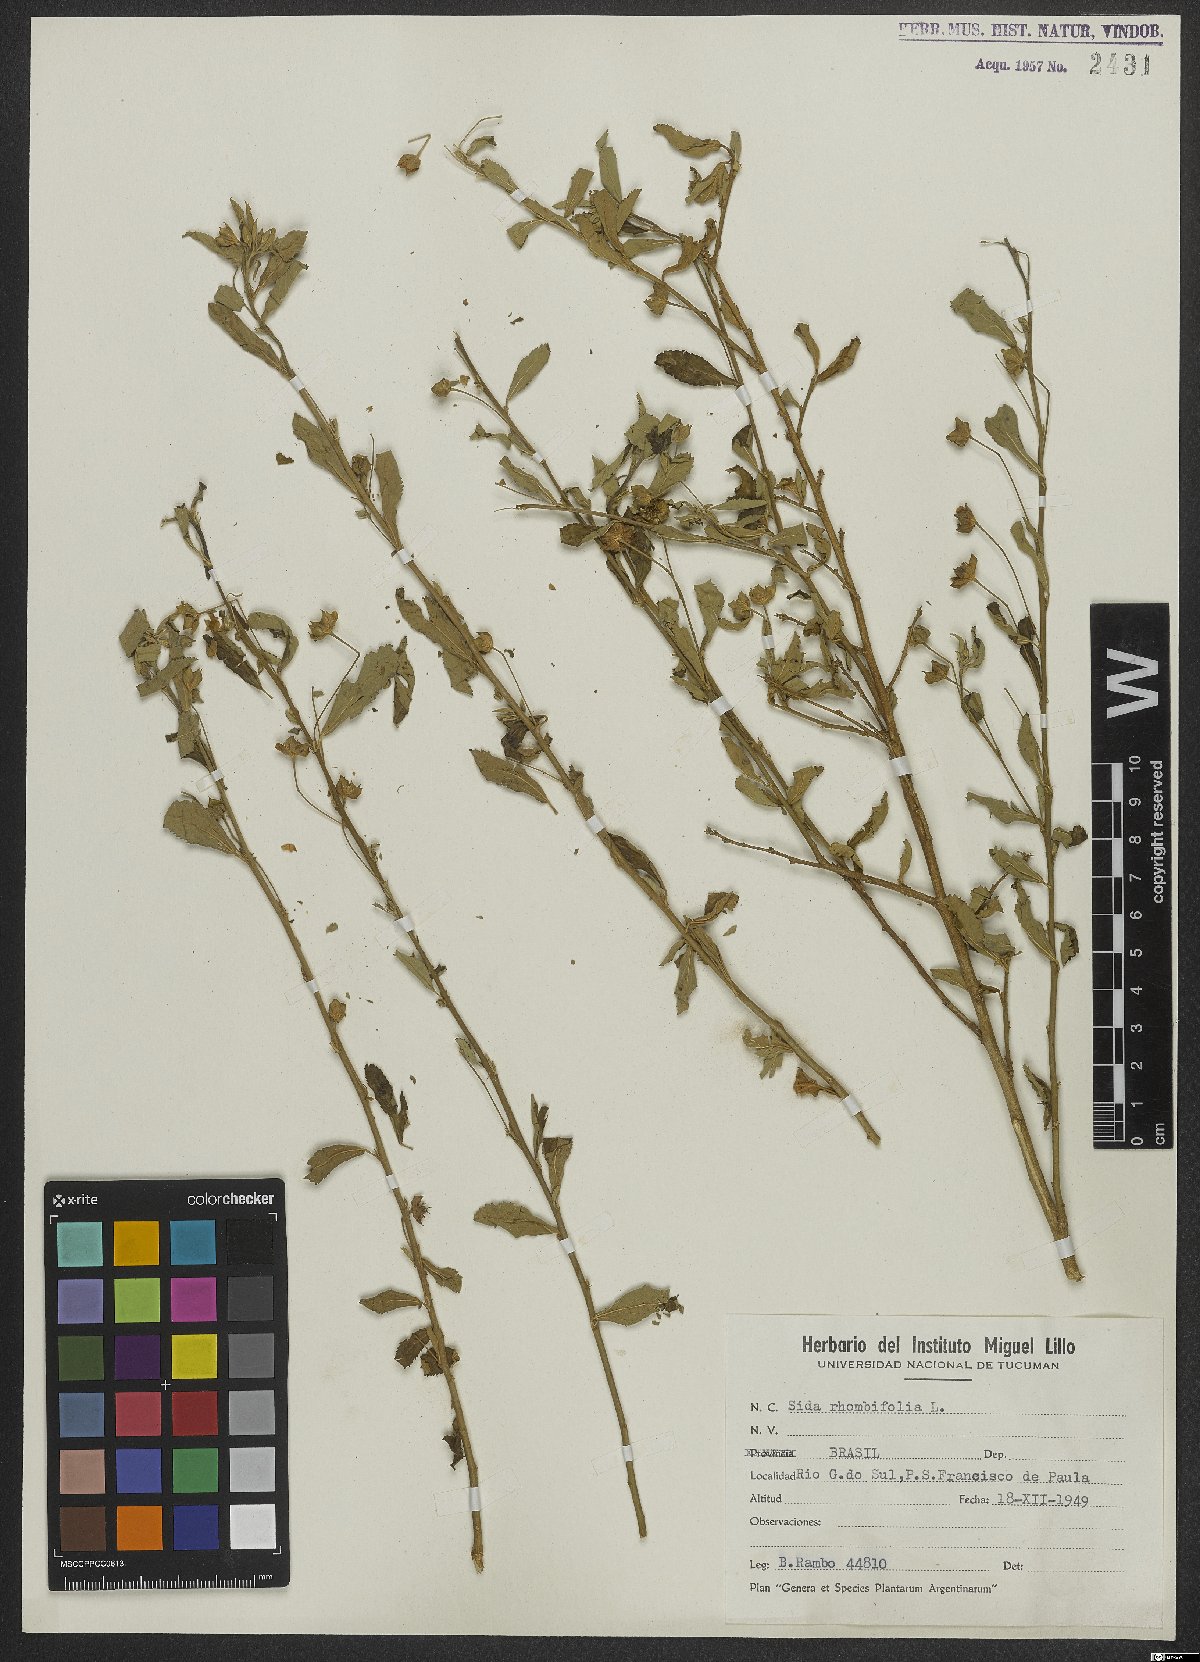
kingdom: Plantae
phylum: Tracheophyta
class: Magnoliopsida
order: Malvales
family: Malvaceae
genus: Sida
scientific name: Sida rhombifolia
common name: Queensland-hemp
